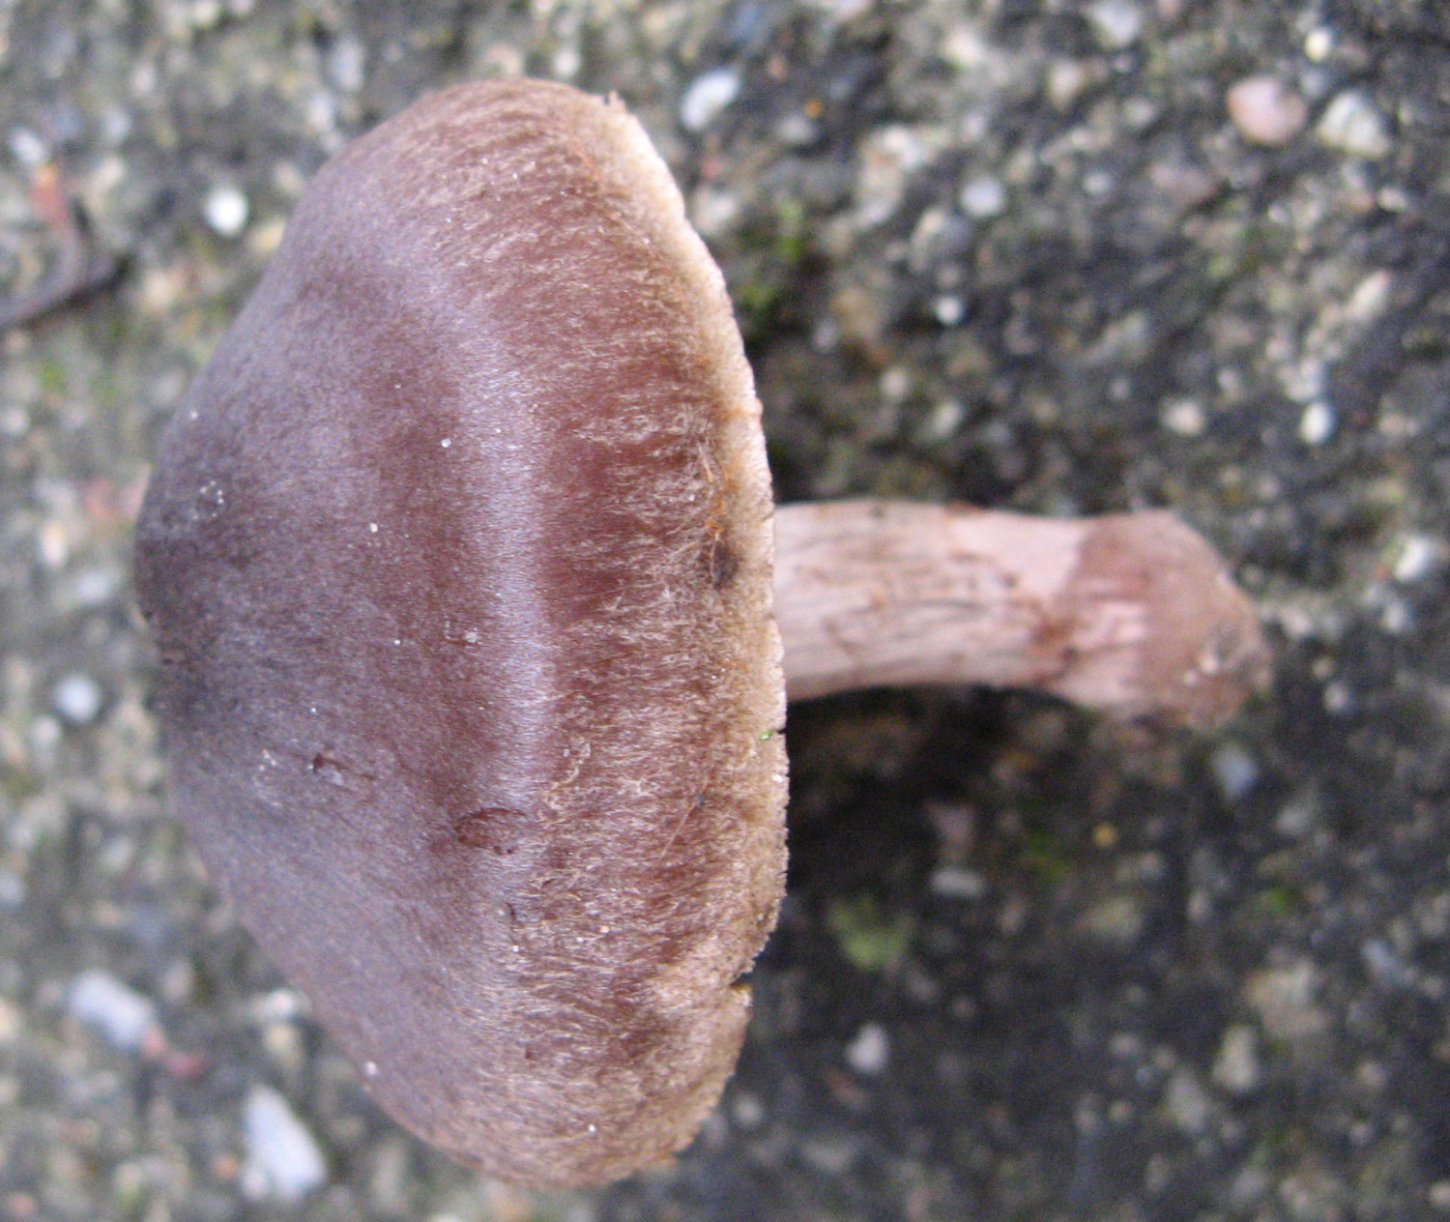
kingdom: Fungi
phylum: Basidiomycota
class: Agaricomycetes
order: Agaricales
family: Cortinariaceae
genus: Cortinarius
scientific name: Cortinarius vernus
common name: sommer-slørhat
